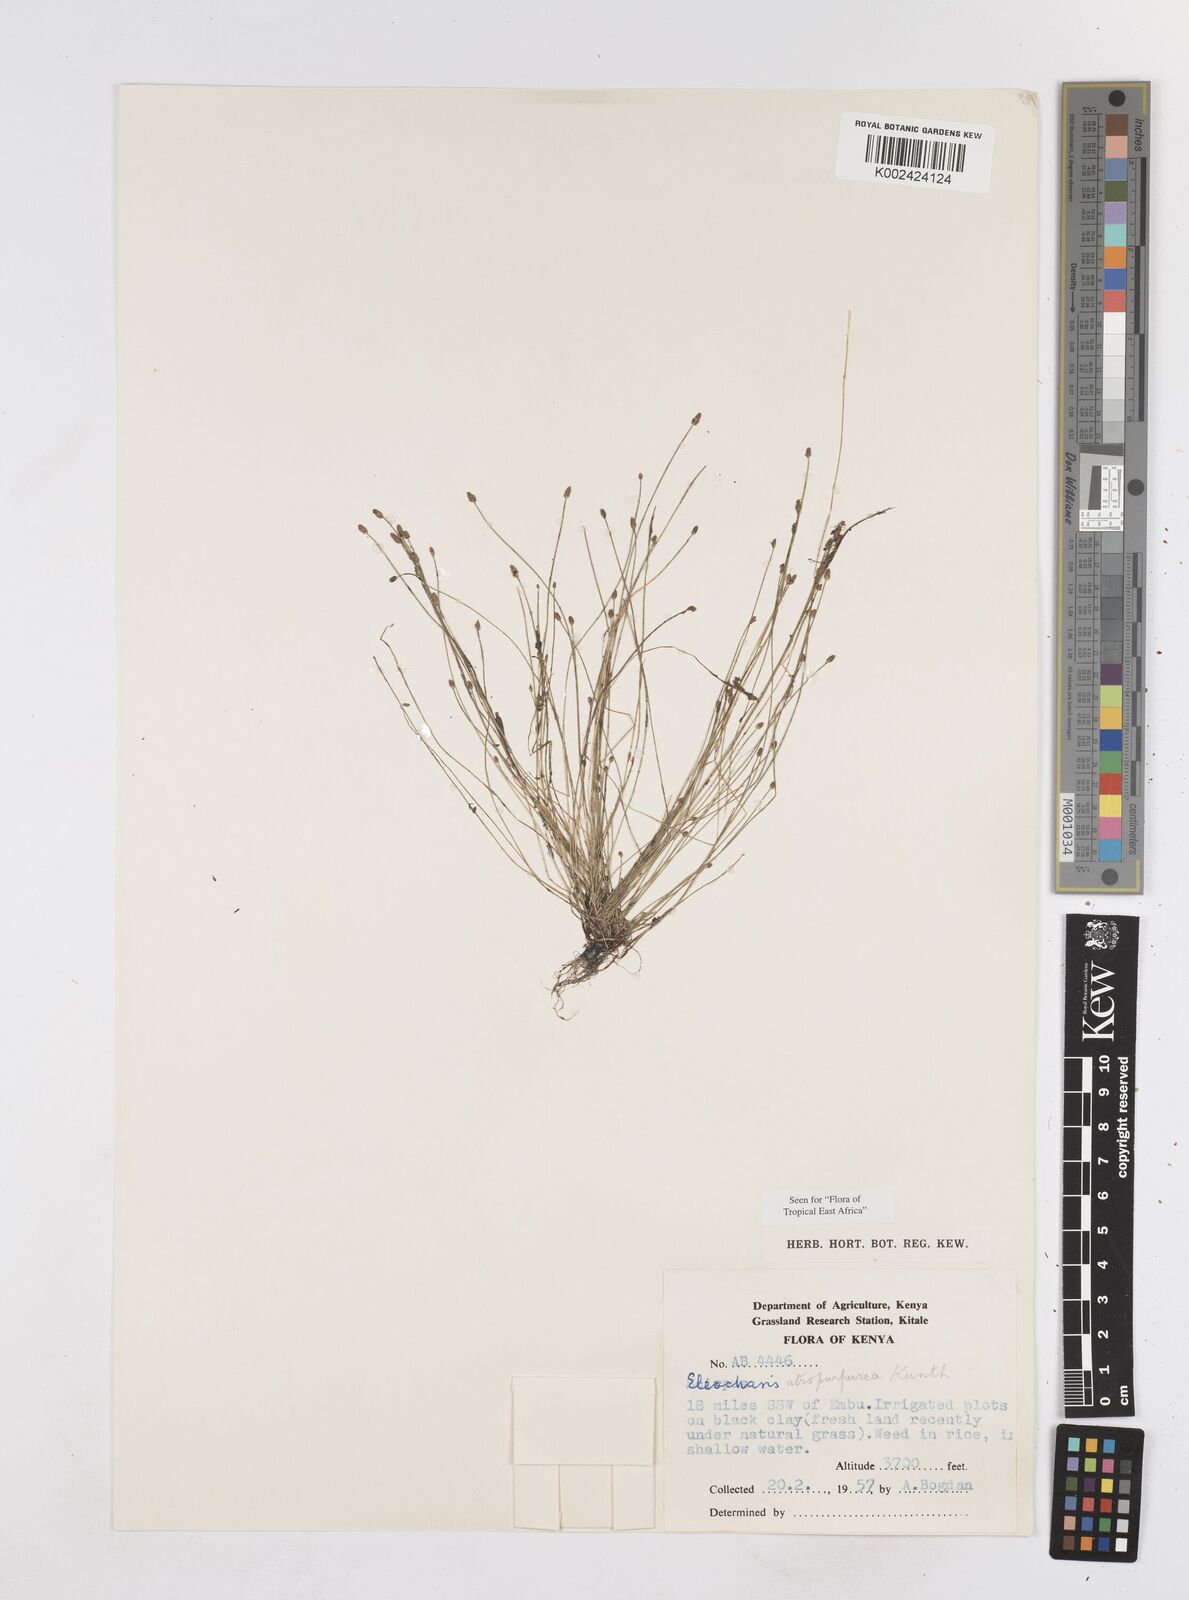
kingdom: Plantae
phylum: Tracheophyta
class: Liliopsida
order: Poales
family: Cyperaceae
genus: Eleocharis
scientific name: Eleocharis atropurpurea
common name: Purple spikerush
